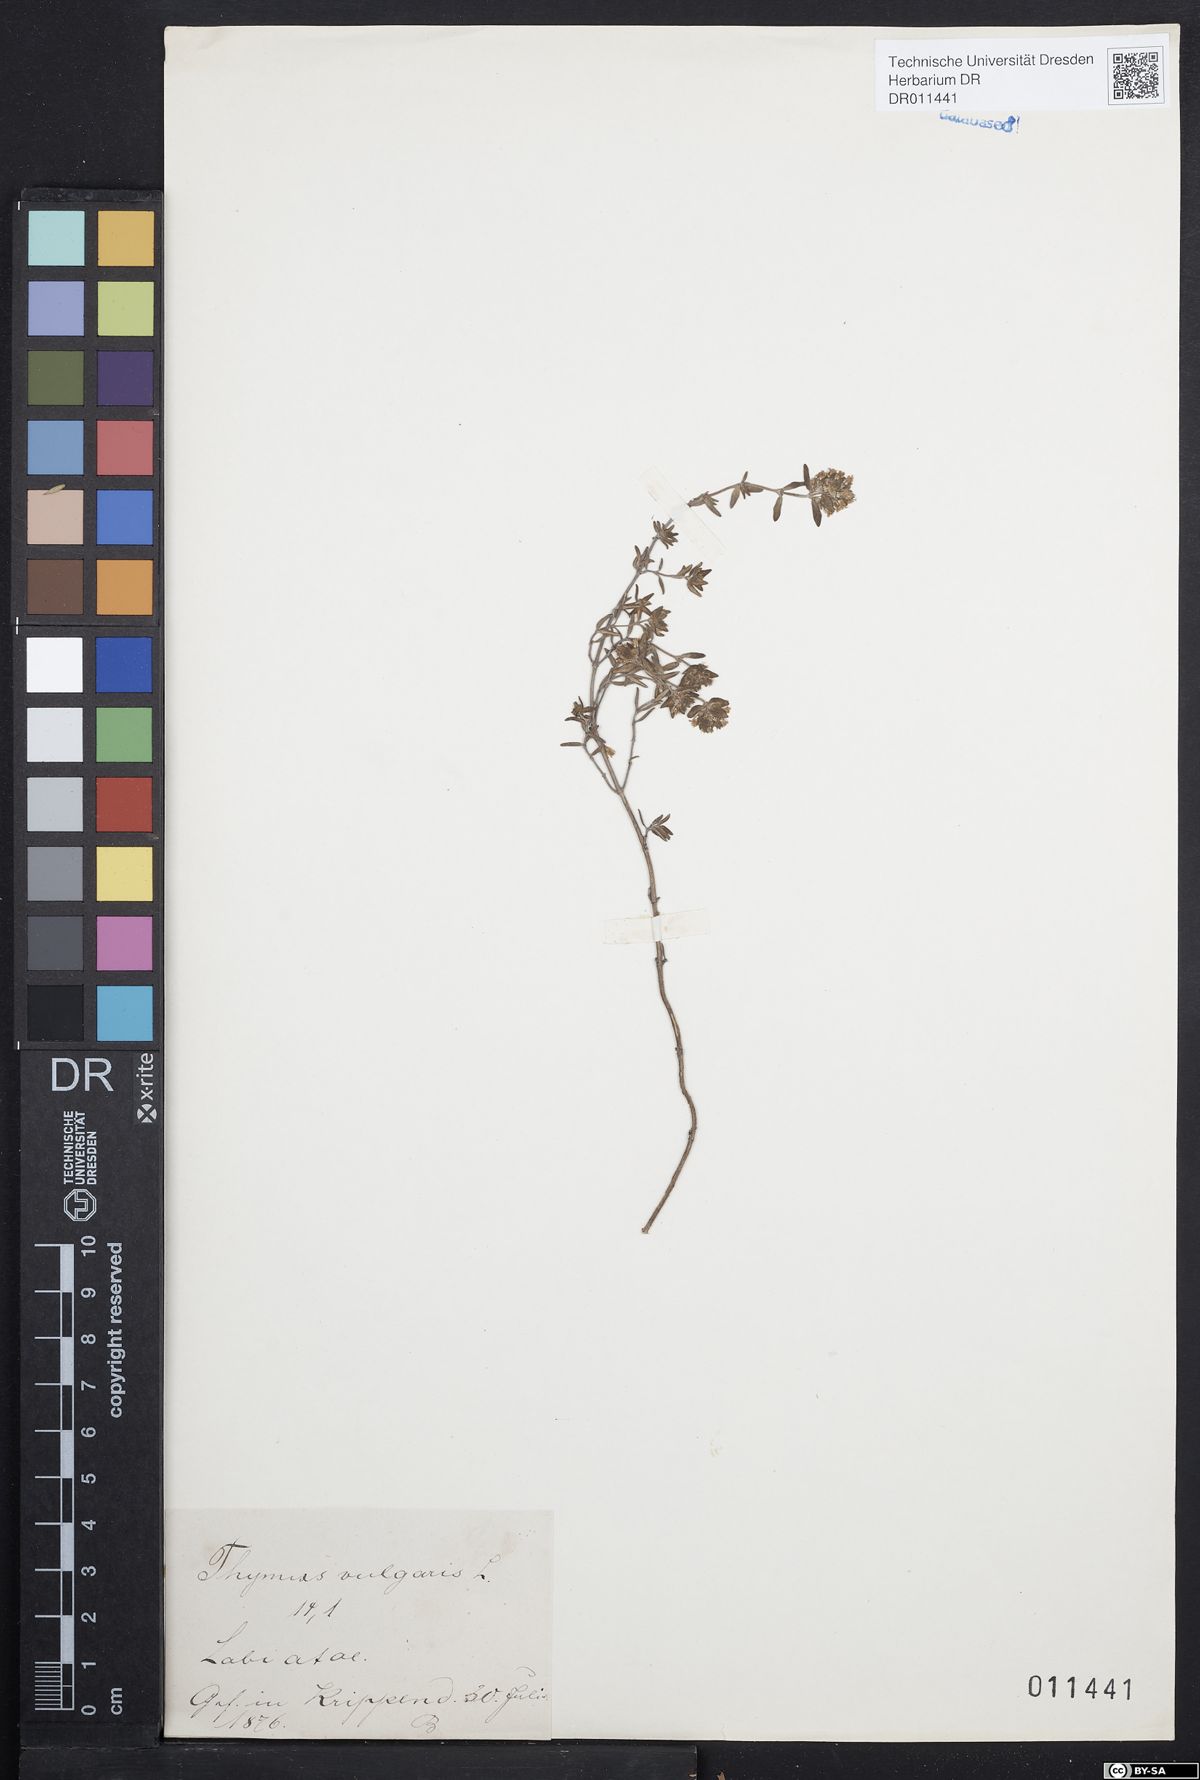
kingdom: Plantae
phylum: Tracheophyta
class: Magnoliopsida
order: Lamiales
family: Lamiaceae
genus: Thymus
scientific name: Thymus vulgaris
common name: Garden thyme
